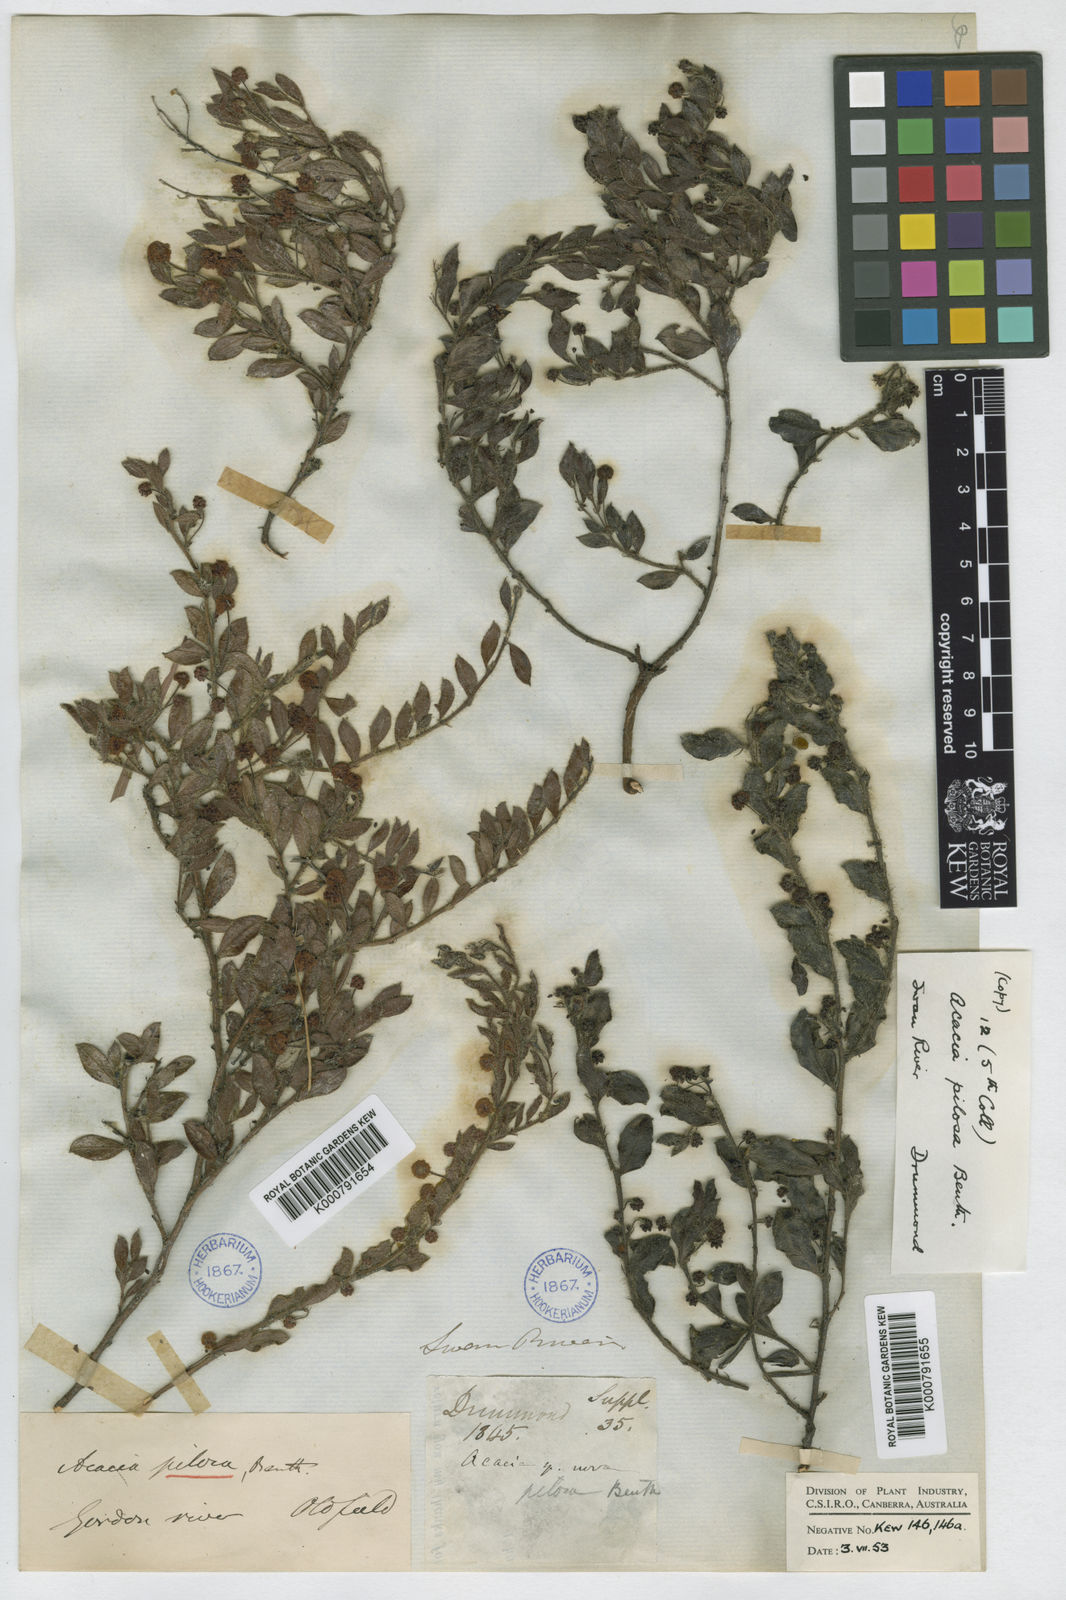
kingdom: Plantae
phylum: Tracheophyta
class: Magnoliopsida
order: Fabales
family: Fabaceae
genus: Acacia
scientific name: Acacia crispula
